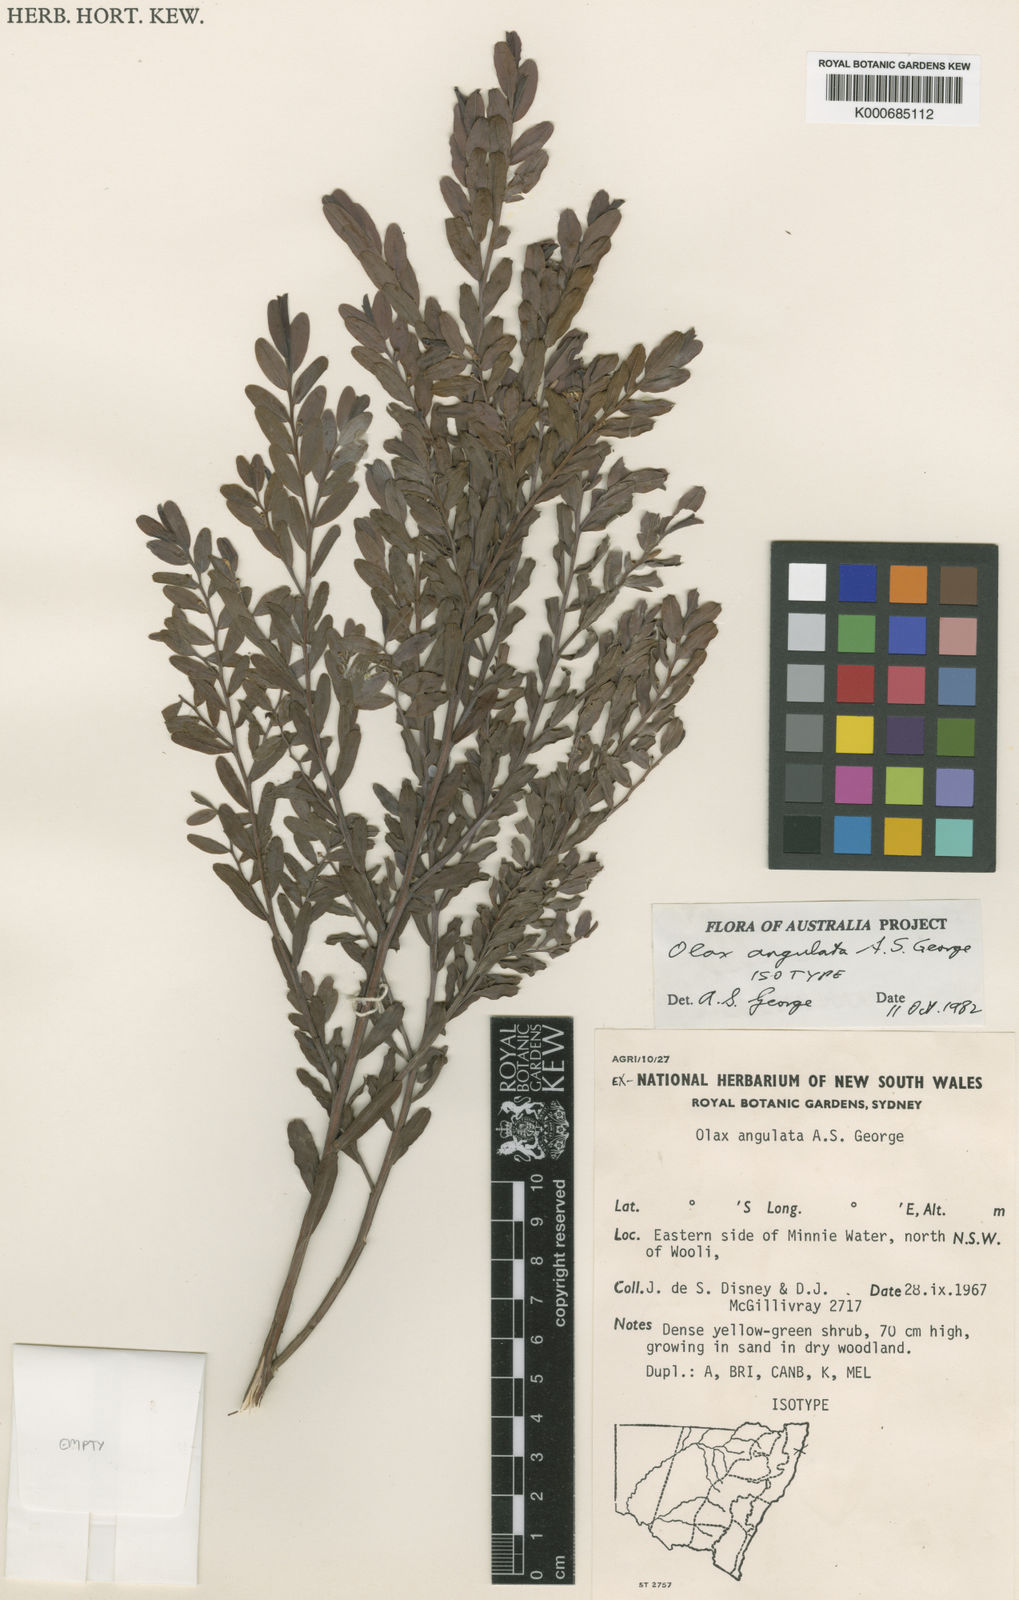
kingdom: Plantae
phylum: Tracheophyta
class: Magnoliopsida
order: Santalales
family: Olacaceae
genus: Olax
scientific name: Olax angulata
